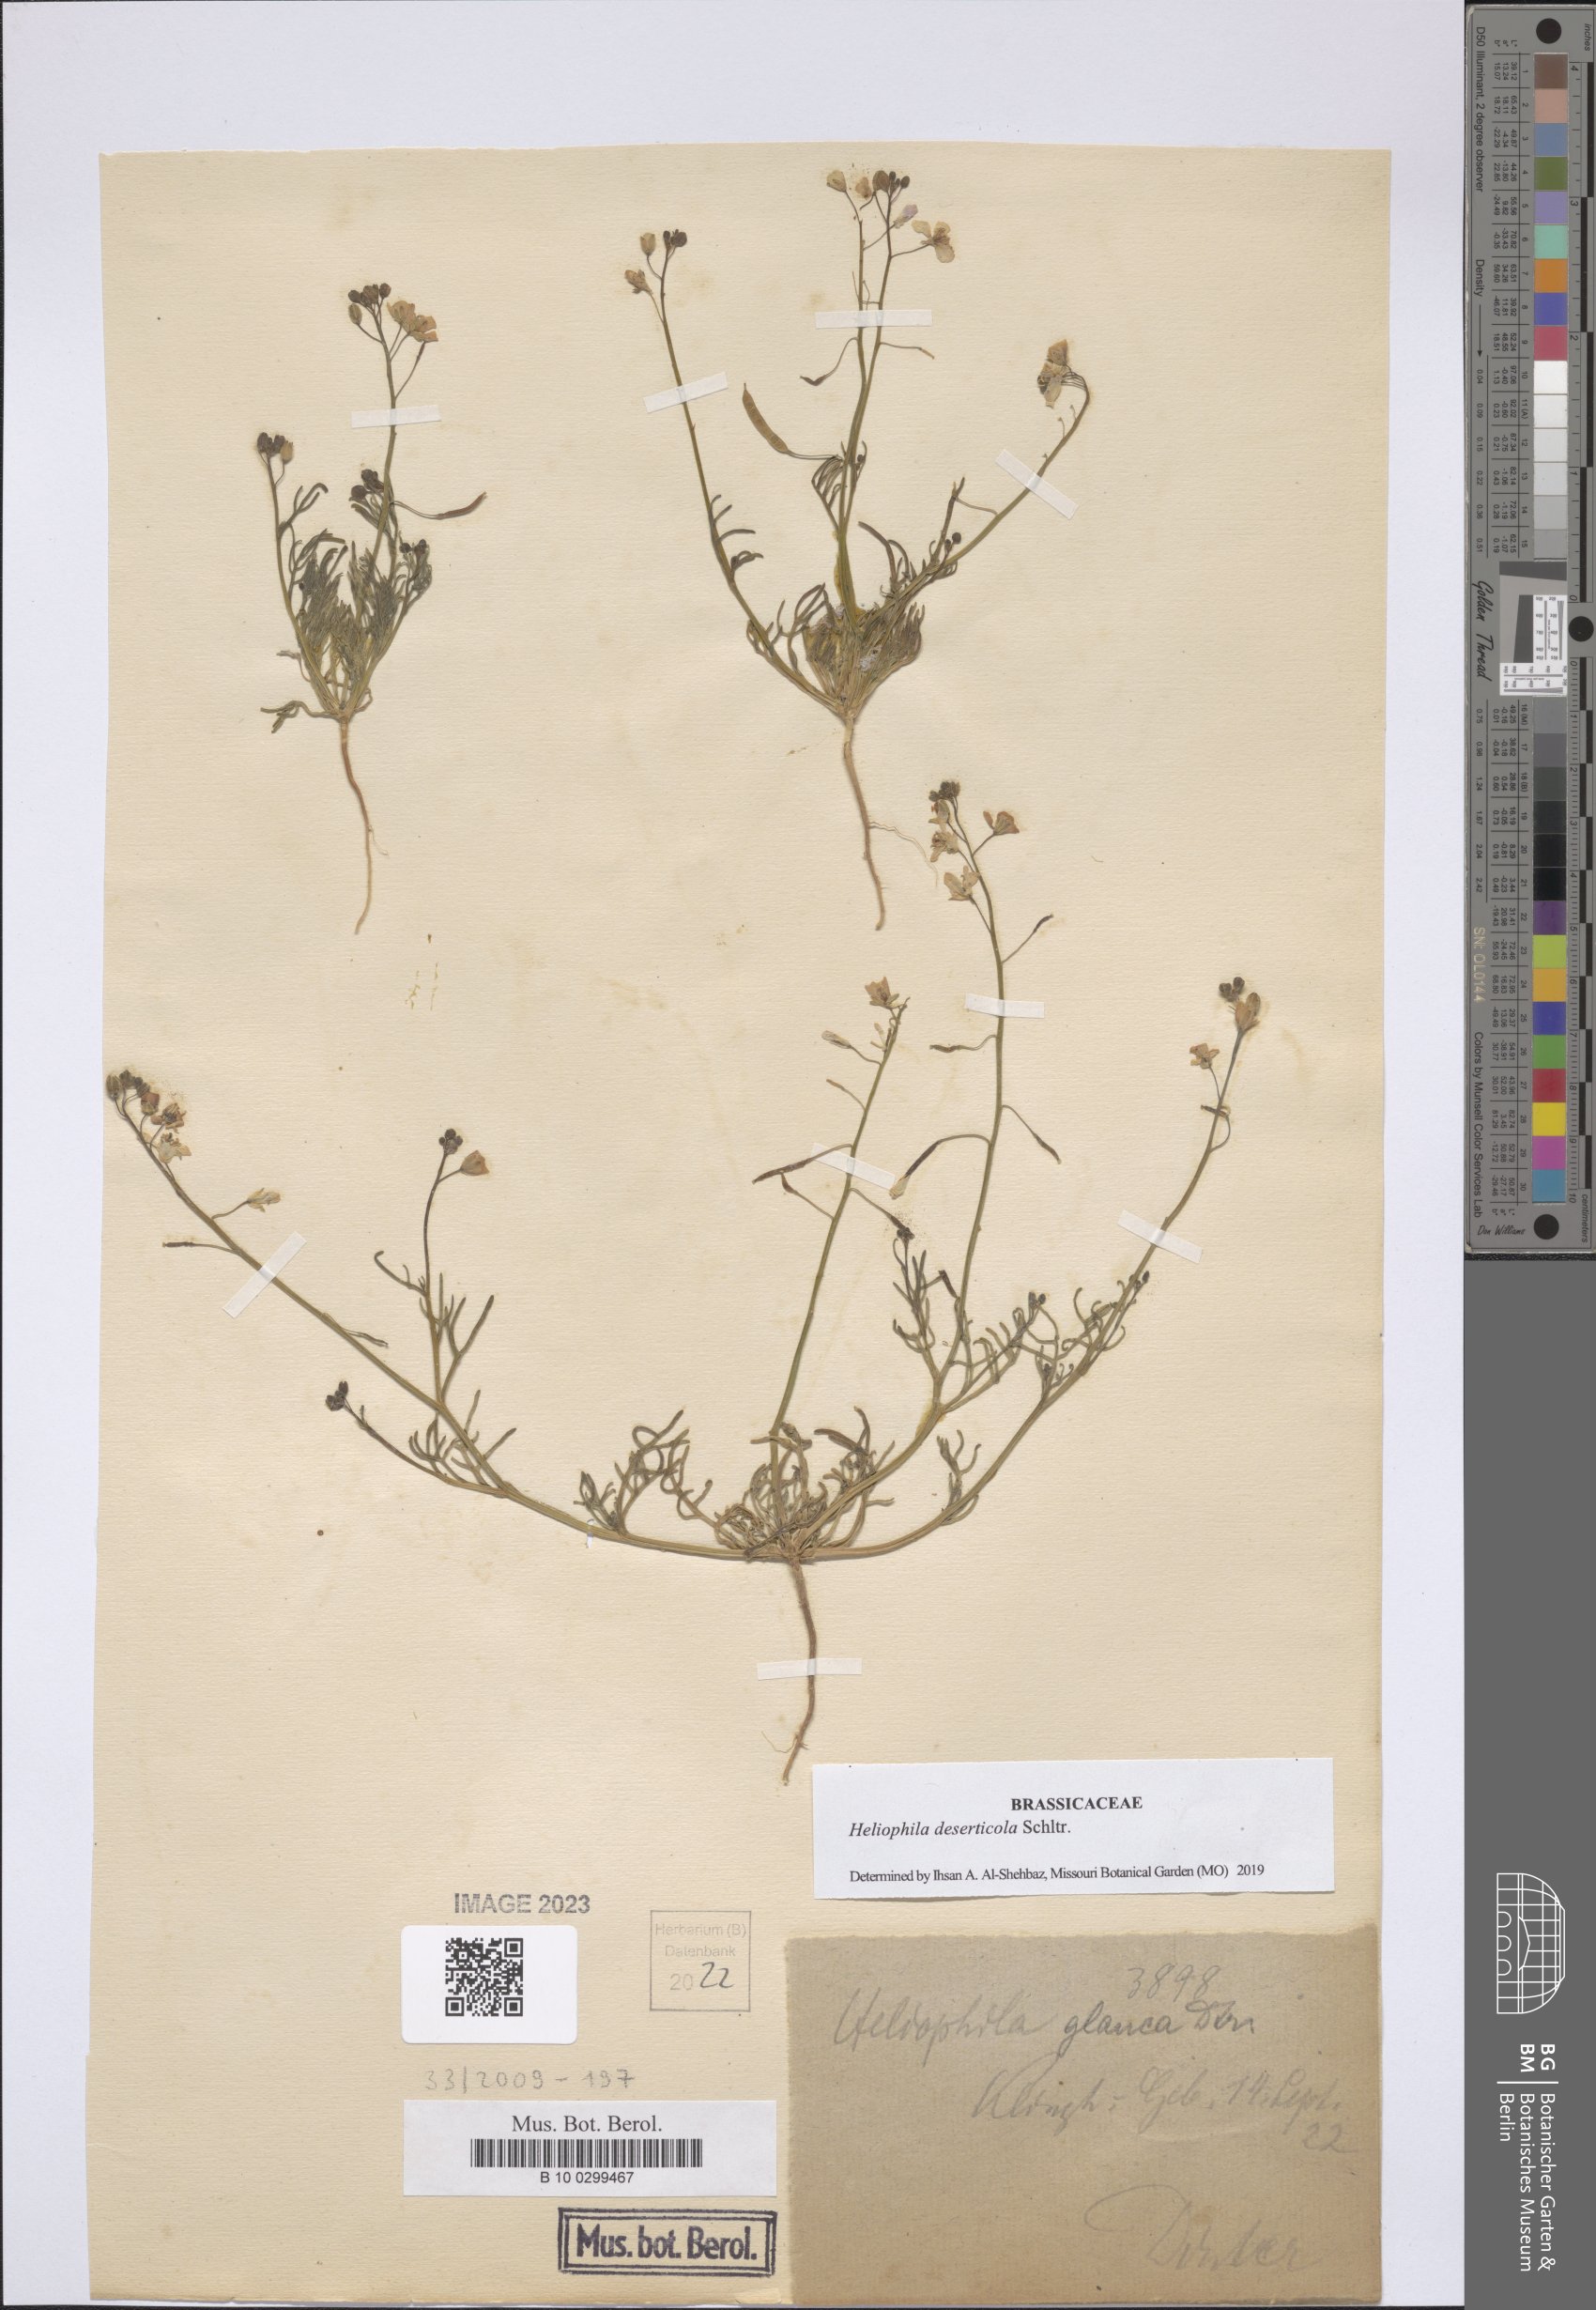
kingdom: Plantae
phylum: Tracheophyta
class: Magnoliopsida
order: Brassicales
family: Brassicaceae
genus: Heliophila
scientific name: Heliophila deserticola
